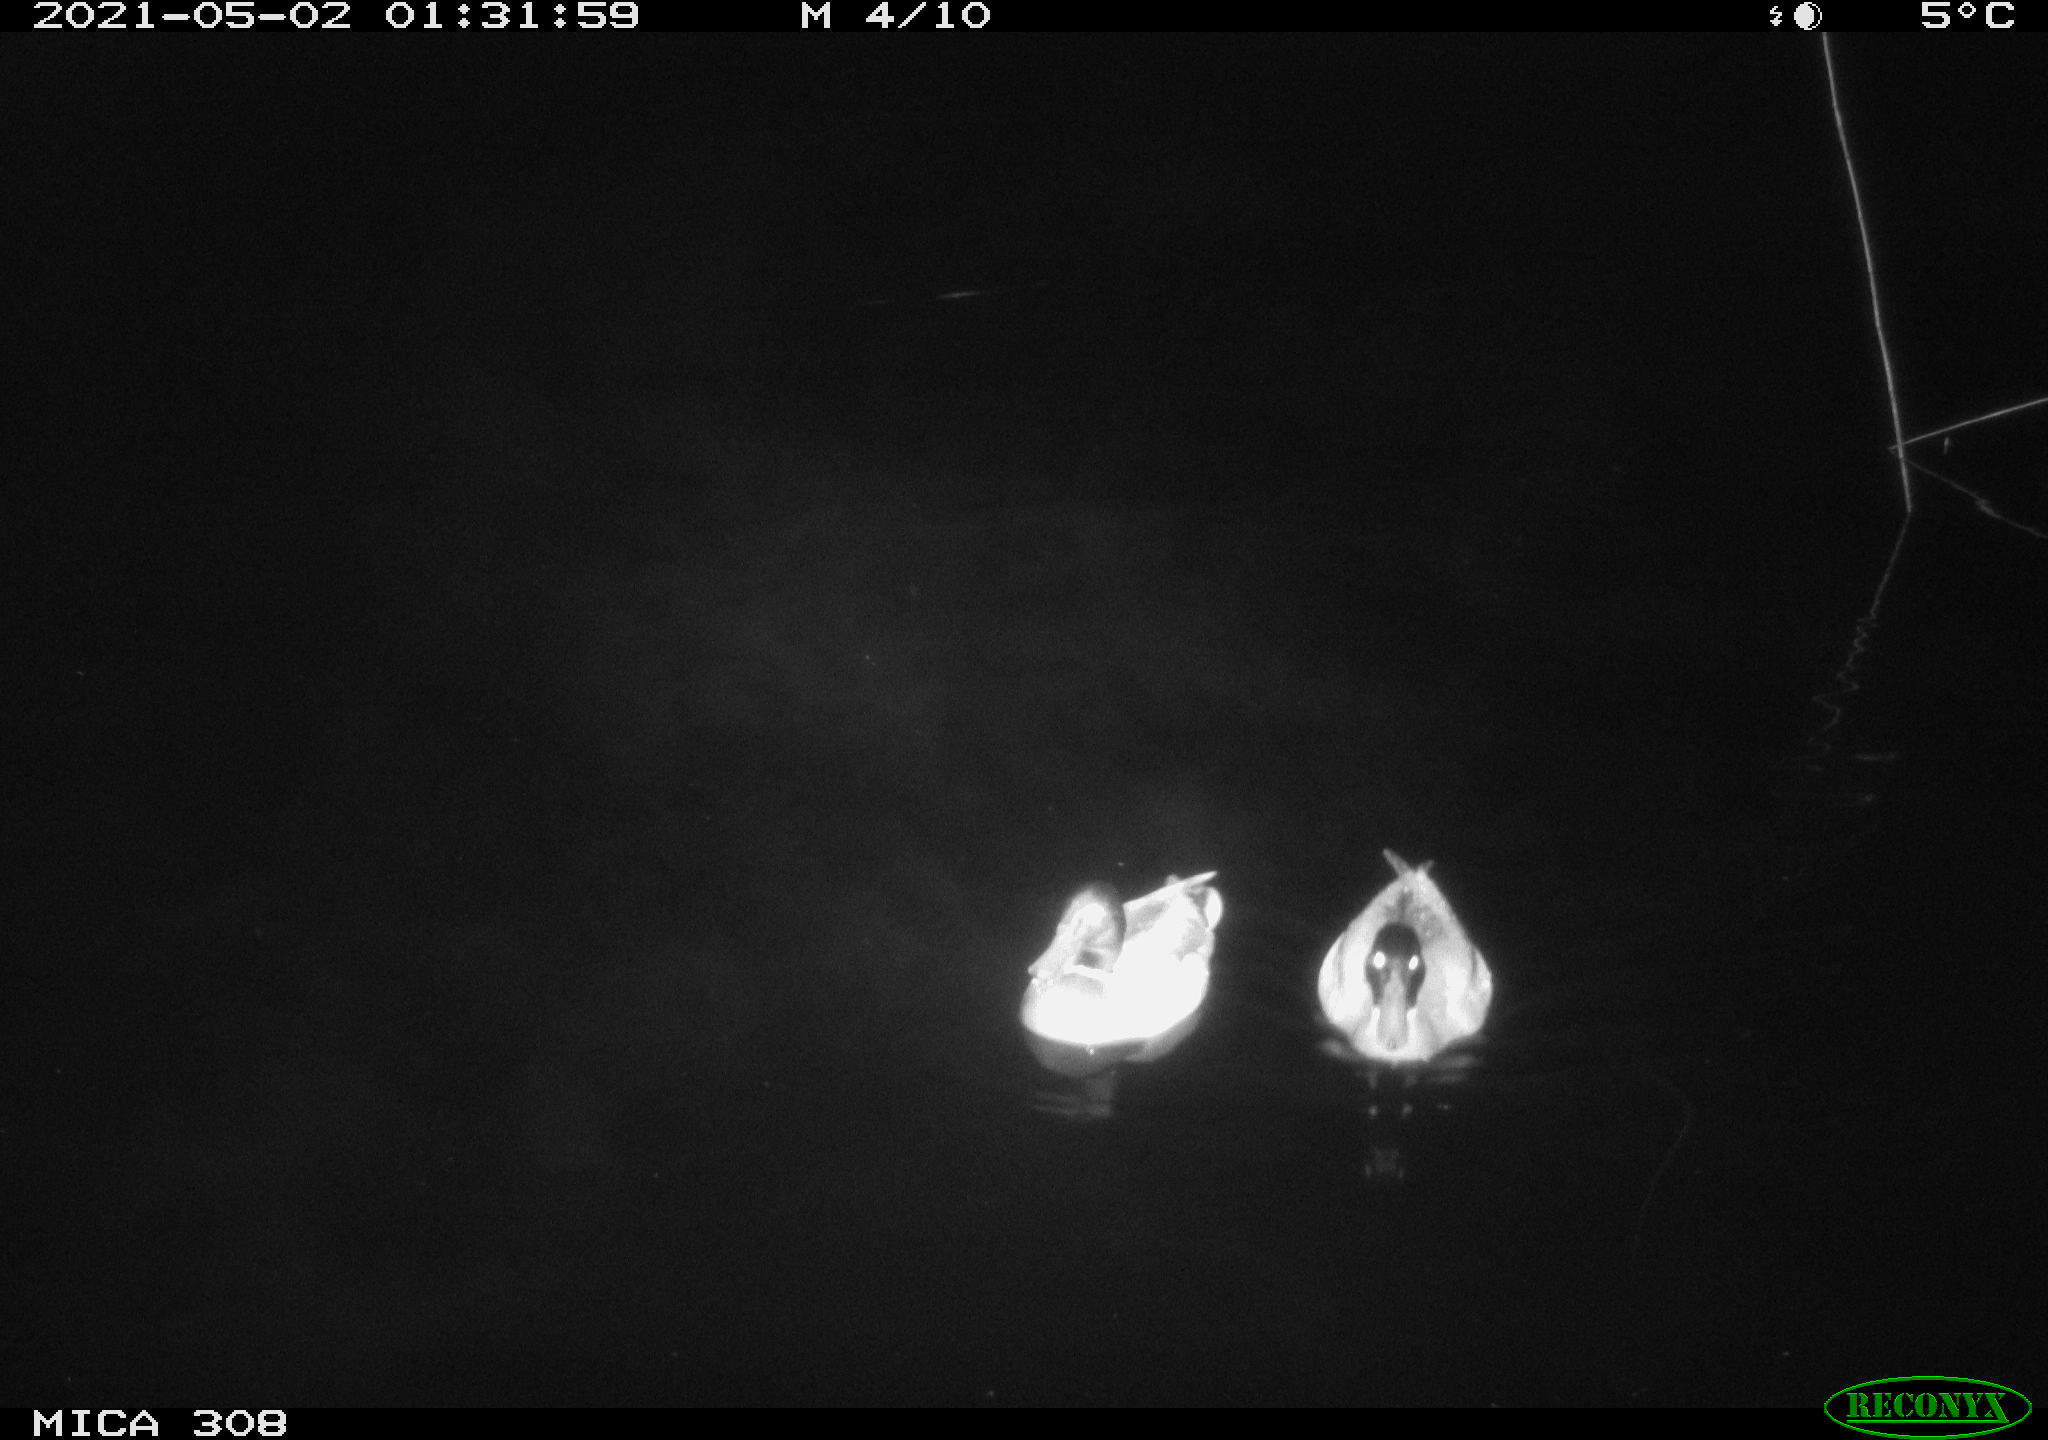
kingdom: Animalia
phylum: Chordata
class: Aves
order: Anseriformes
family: Anatidae
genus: Anas
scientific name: Anas platyrhynchos
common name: Mallard
